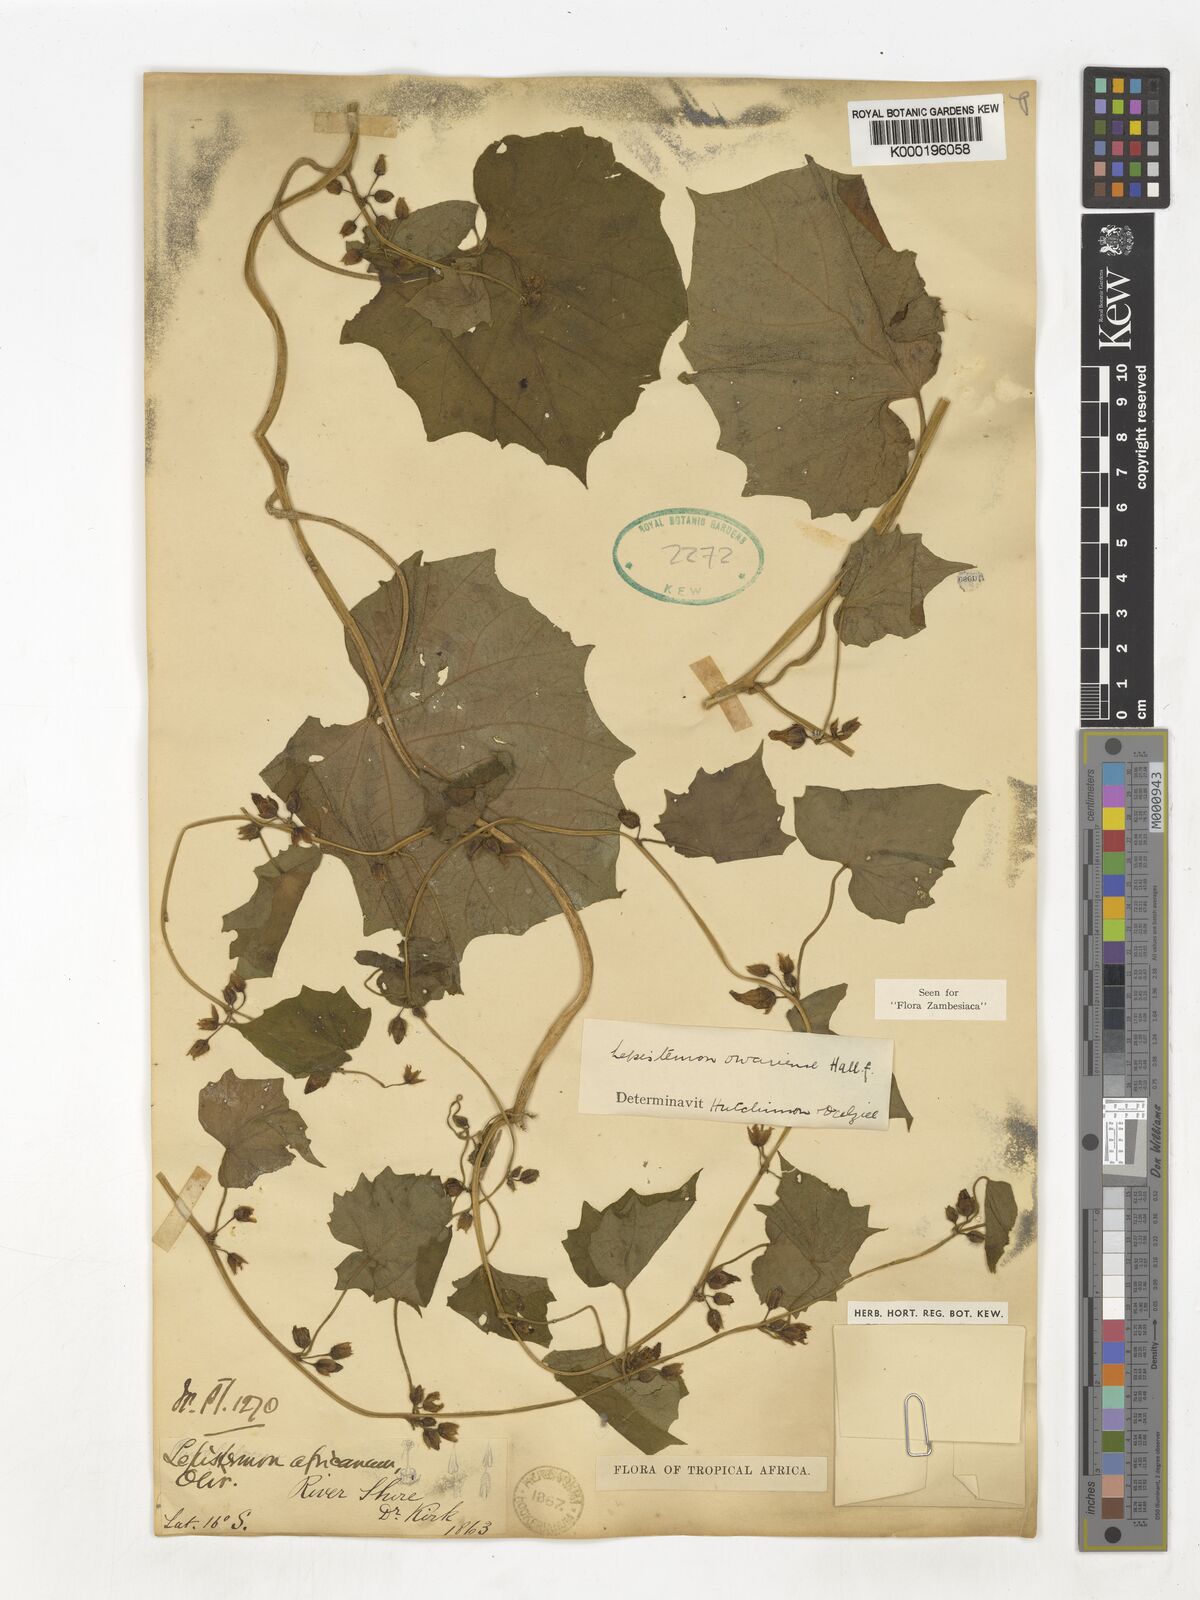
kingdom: Plantae
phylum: Tracheophyta
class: Magnoliopsida
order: Solanales
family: Convolvulaceae
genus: Lepistemon
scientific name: Lepistemon owariensis
